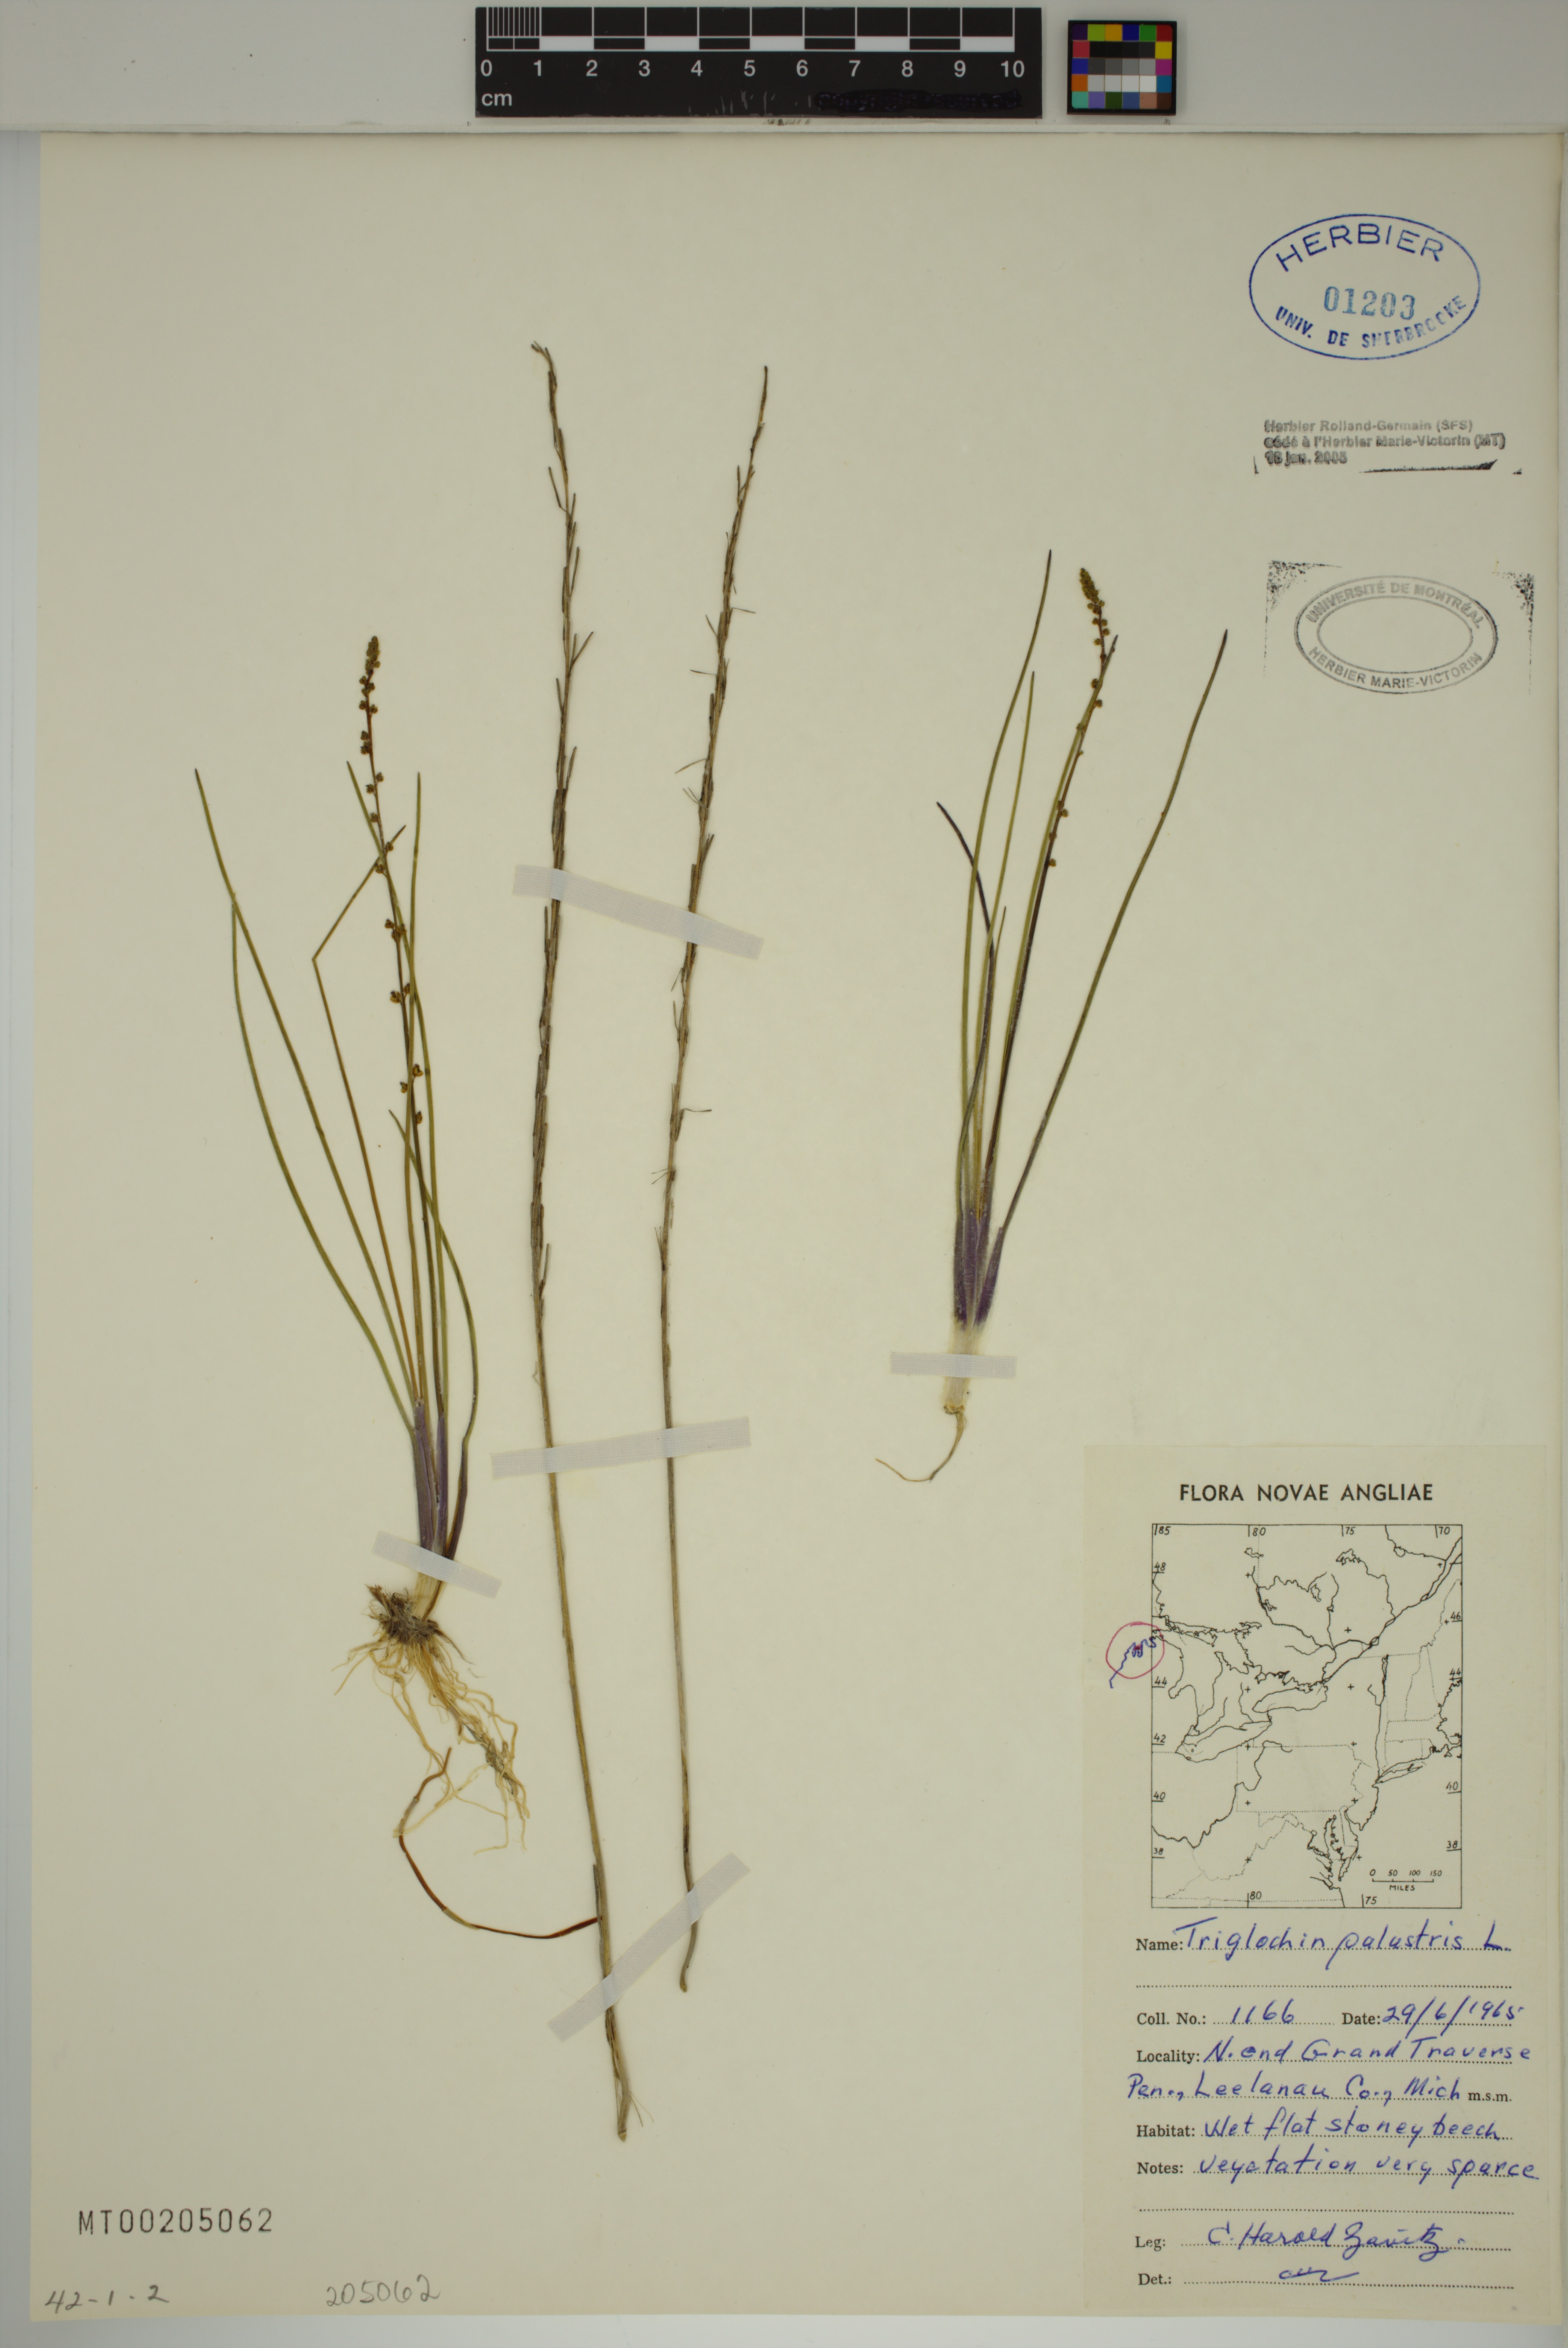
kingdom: Plantae
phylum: Tracheophyta
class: Liliopsida
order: Alismatales
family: Juncaginaceae
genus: Triglochin
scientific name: Triglochin palustris
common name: Marsh arrowgrass
